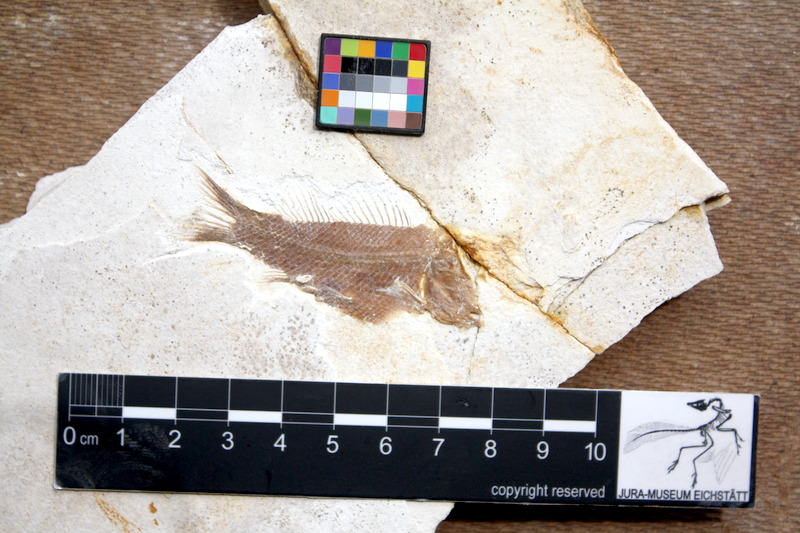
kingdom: Animalia
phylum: Chordata
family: Macrosemiidae
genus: Notagogus
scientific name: Notagogus denticulatus
